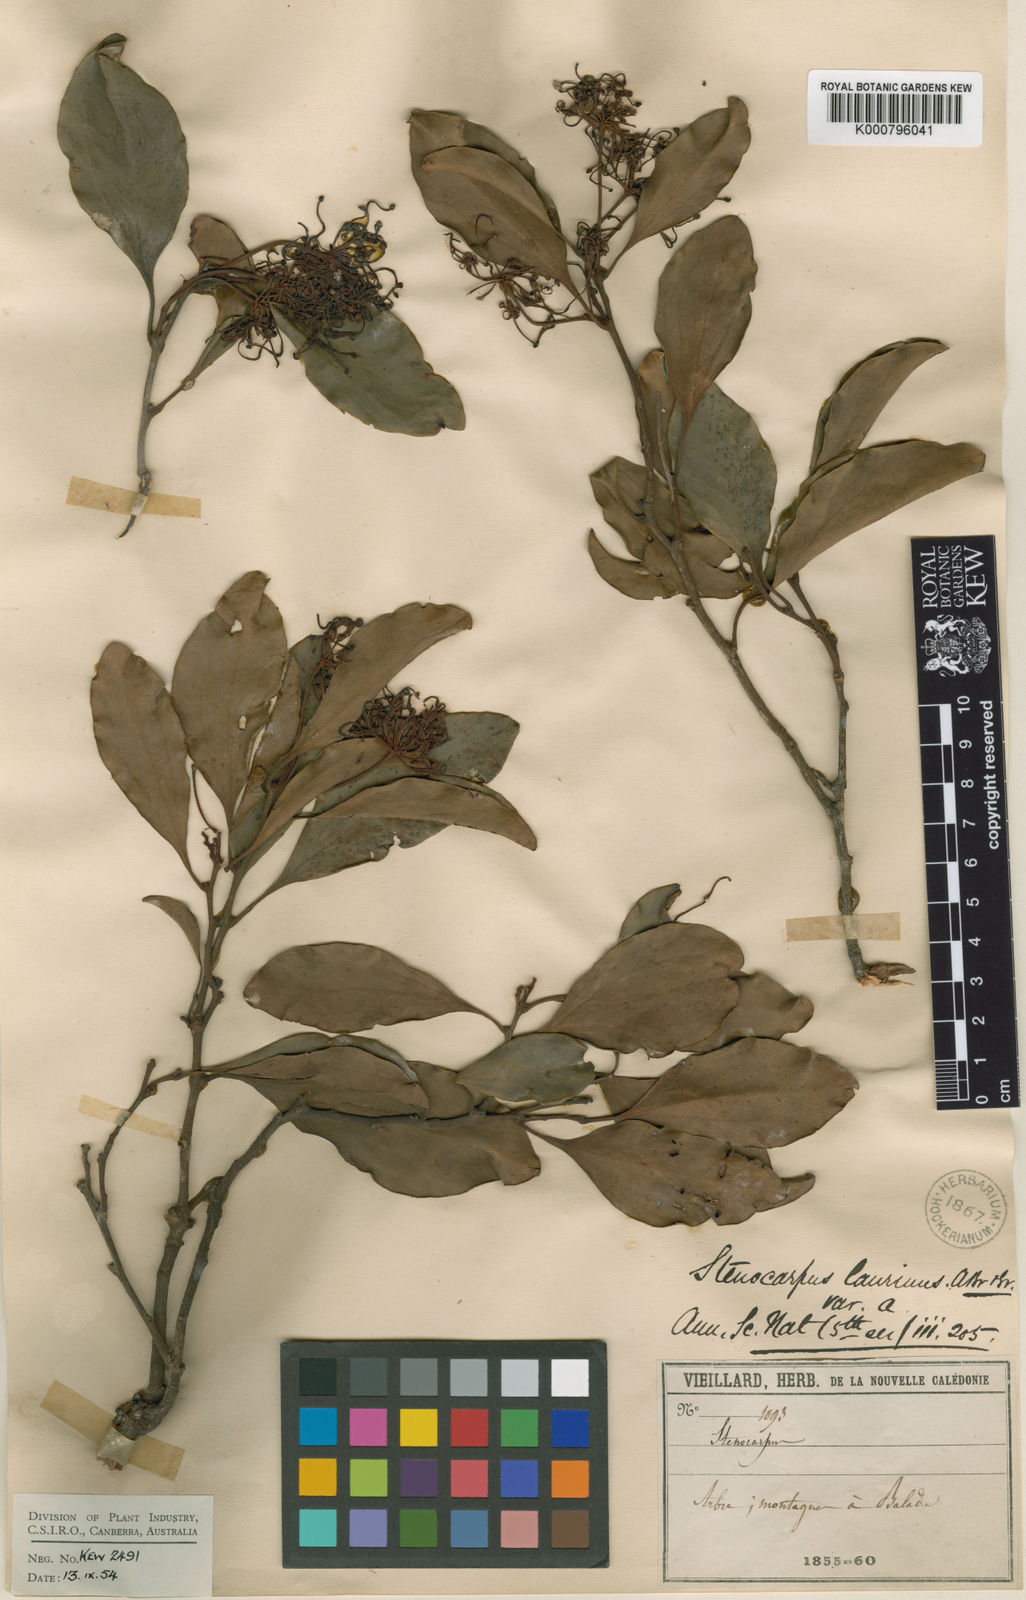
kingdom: Plantae
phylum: Tracheophyta
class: Magnoliopsida
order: Proteales
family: Proteaceae
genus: Stenocarpus
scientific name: Stenocarpus trinervis
